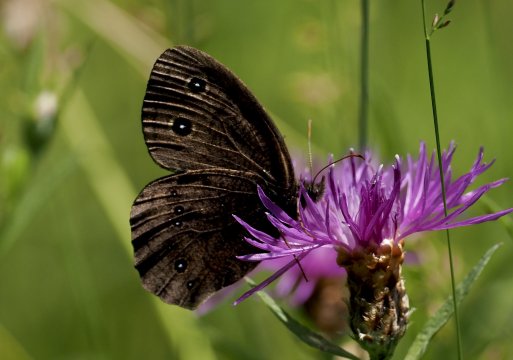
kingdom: Animalia
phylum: Arthropoda
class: Insecta
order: Lepidoptera
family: Nymphalidae
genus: Cercyonis
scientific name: Cercyonis pegala
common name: Common Wood-Nymph
